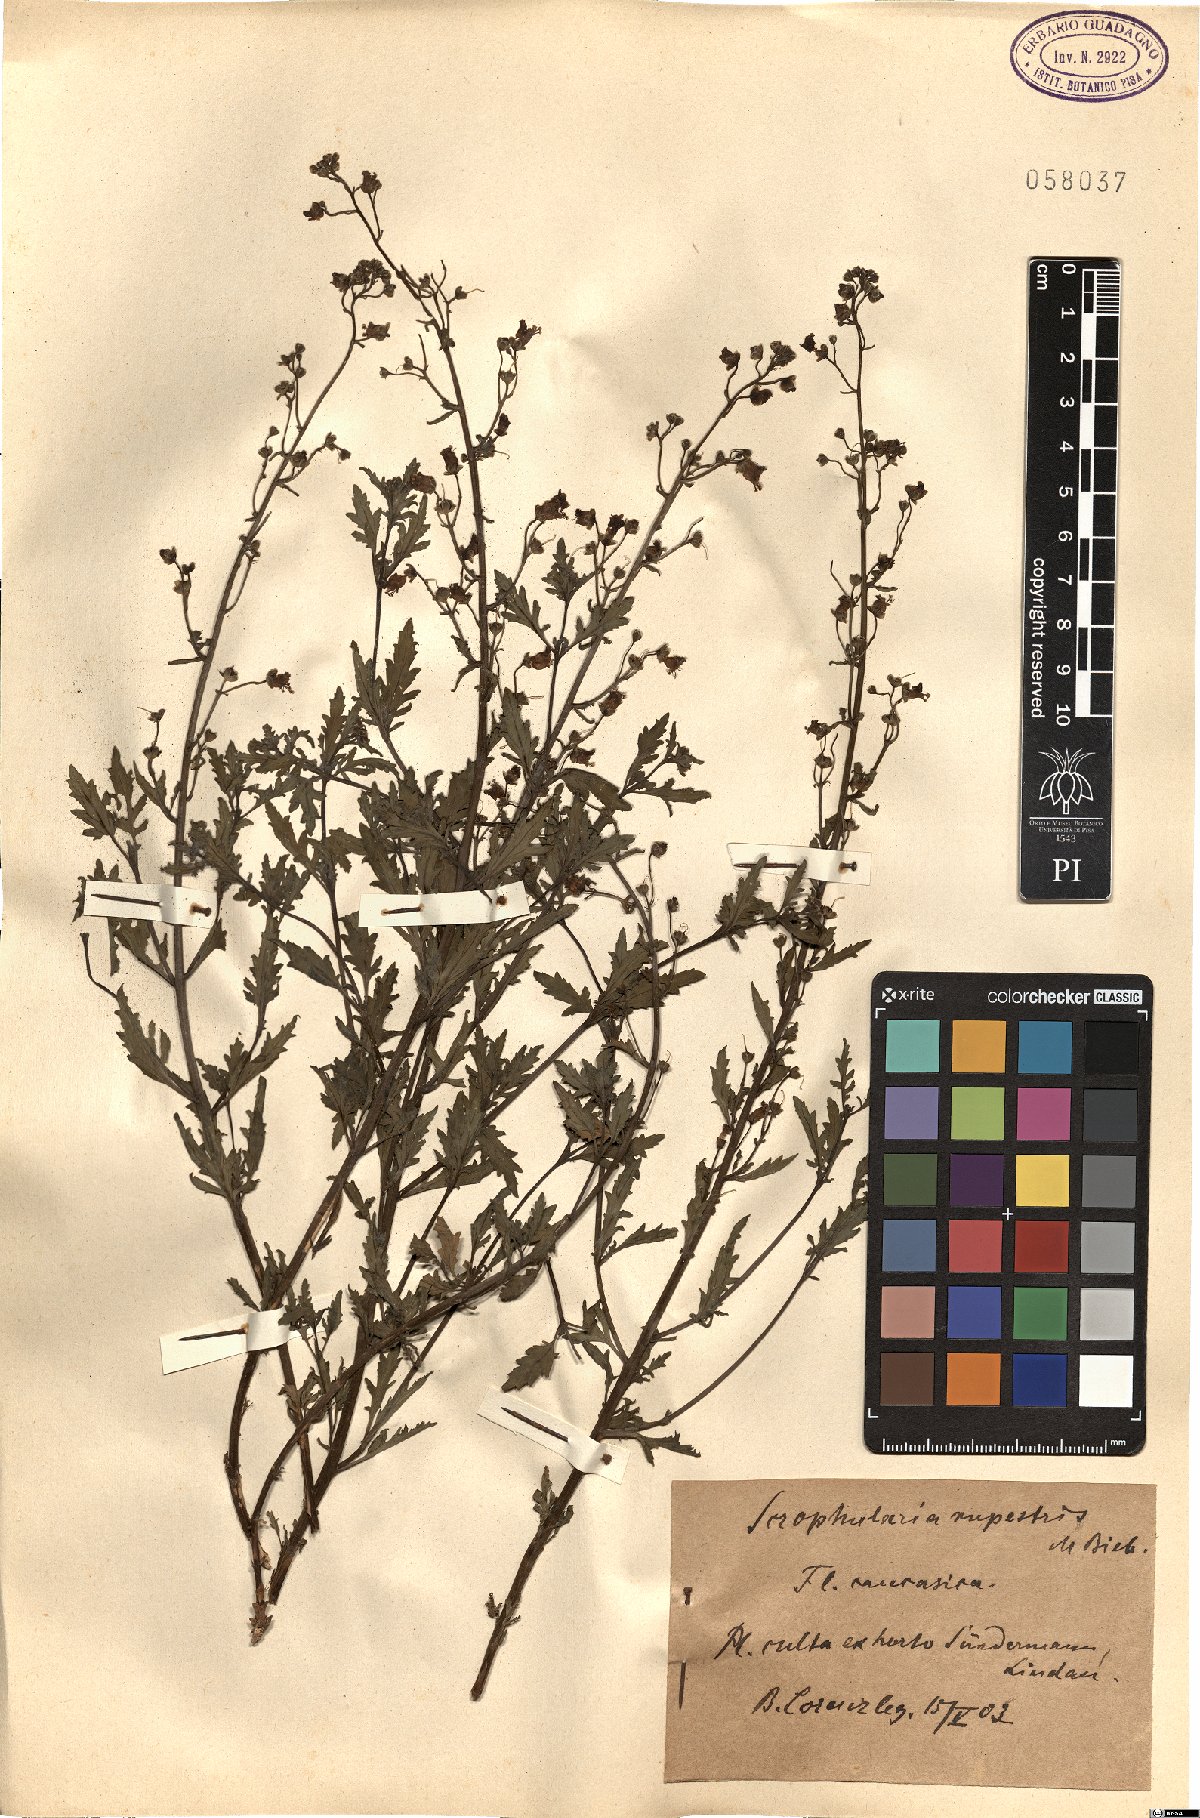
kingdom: Plantae
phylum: Tracheophyta
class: Magnoliopsida
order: Lamiales
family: Scrophulariaceae
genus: Scrophularia
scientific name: Scrophularia rupestris
